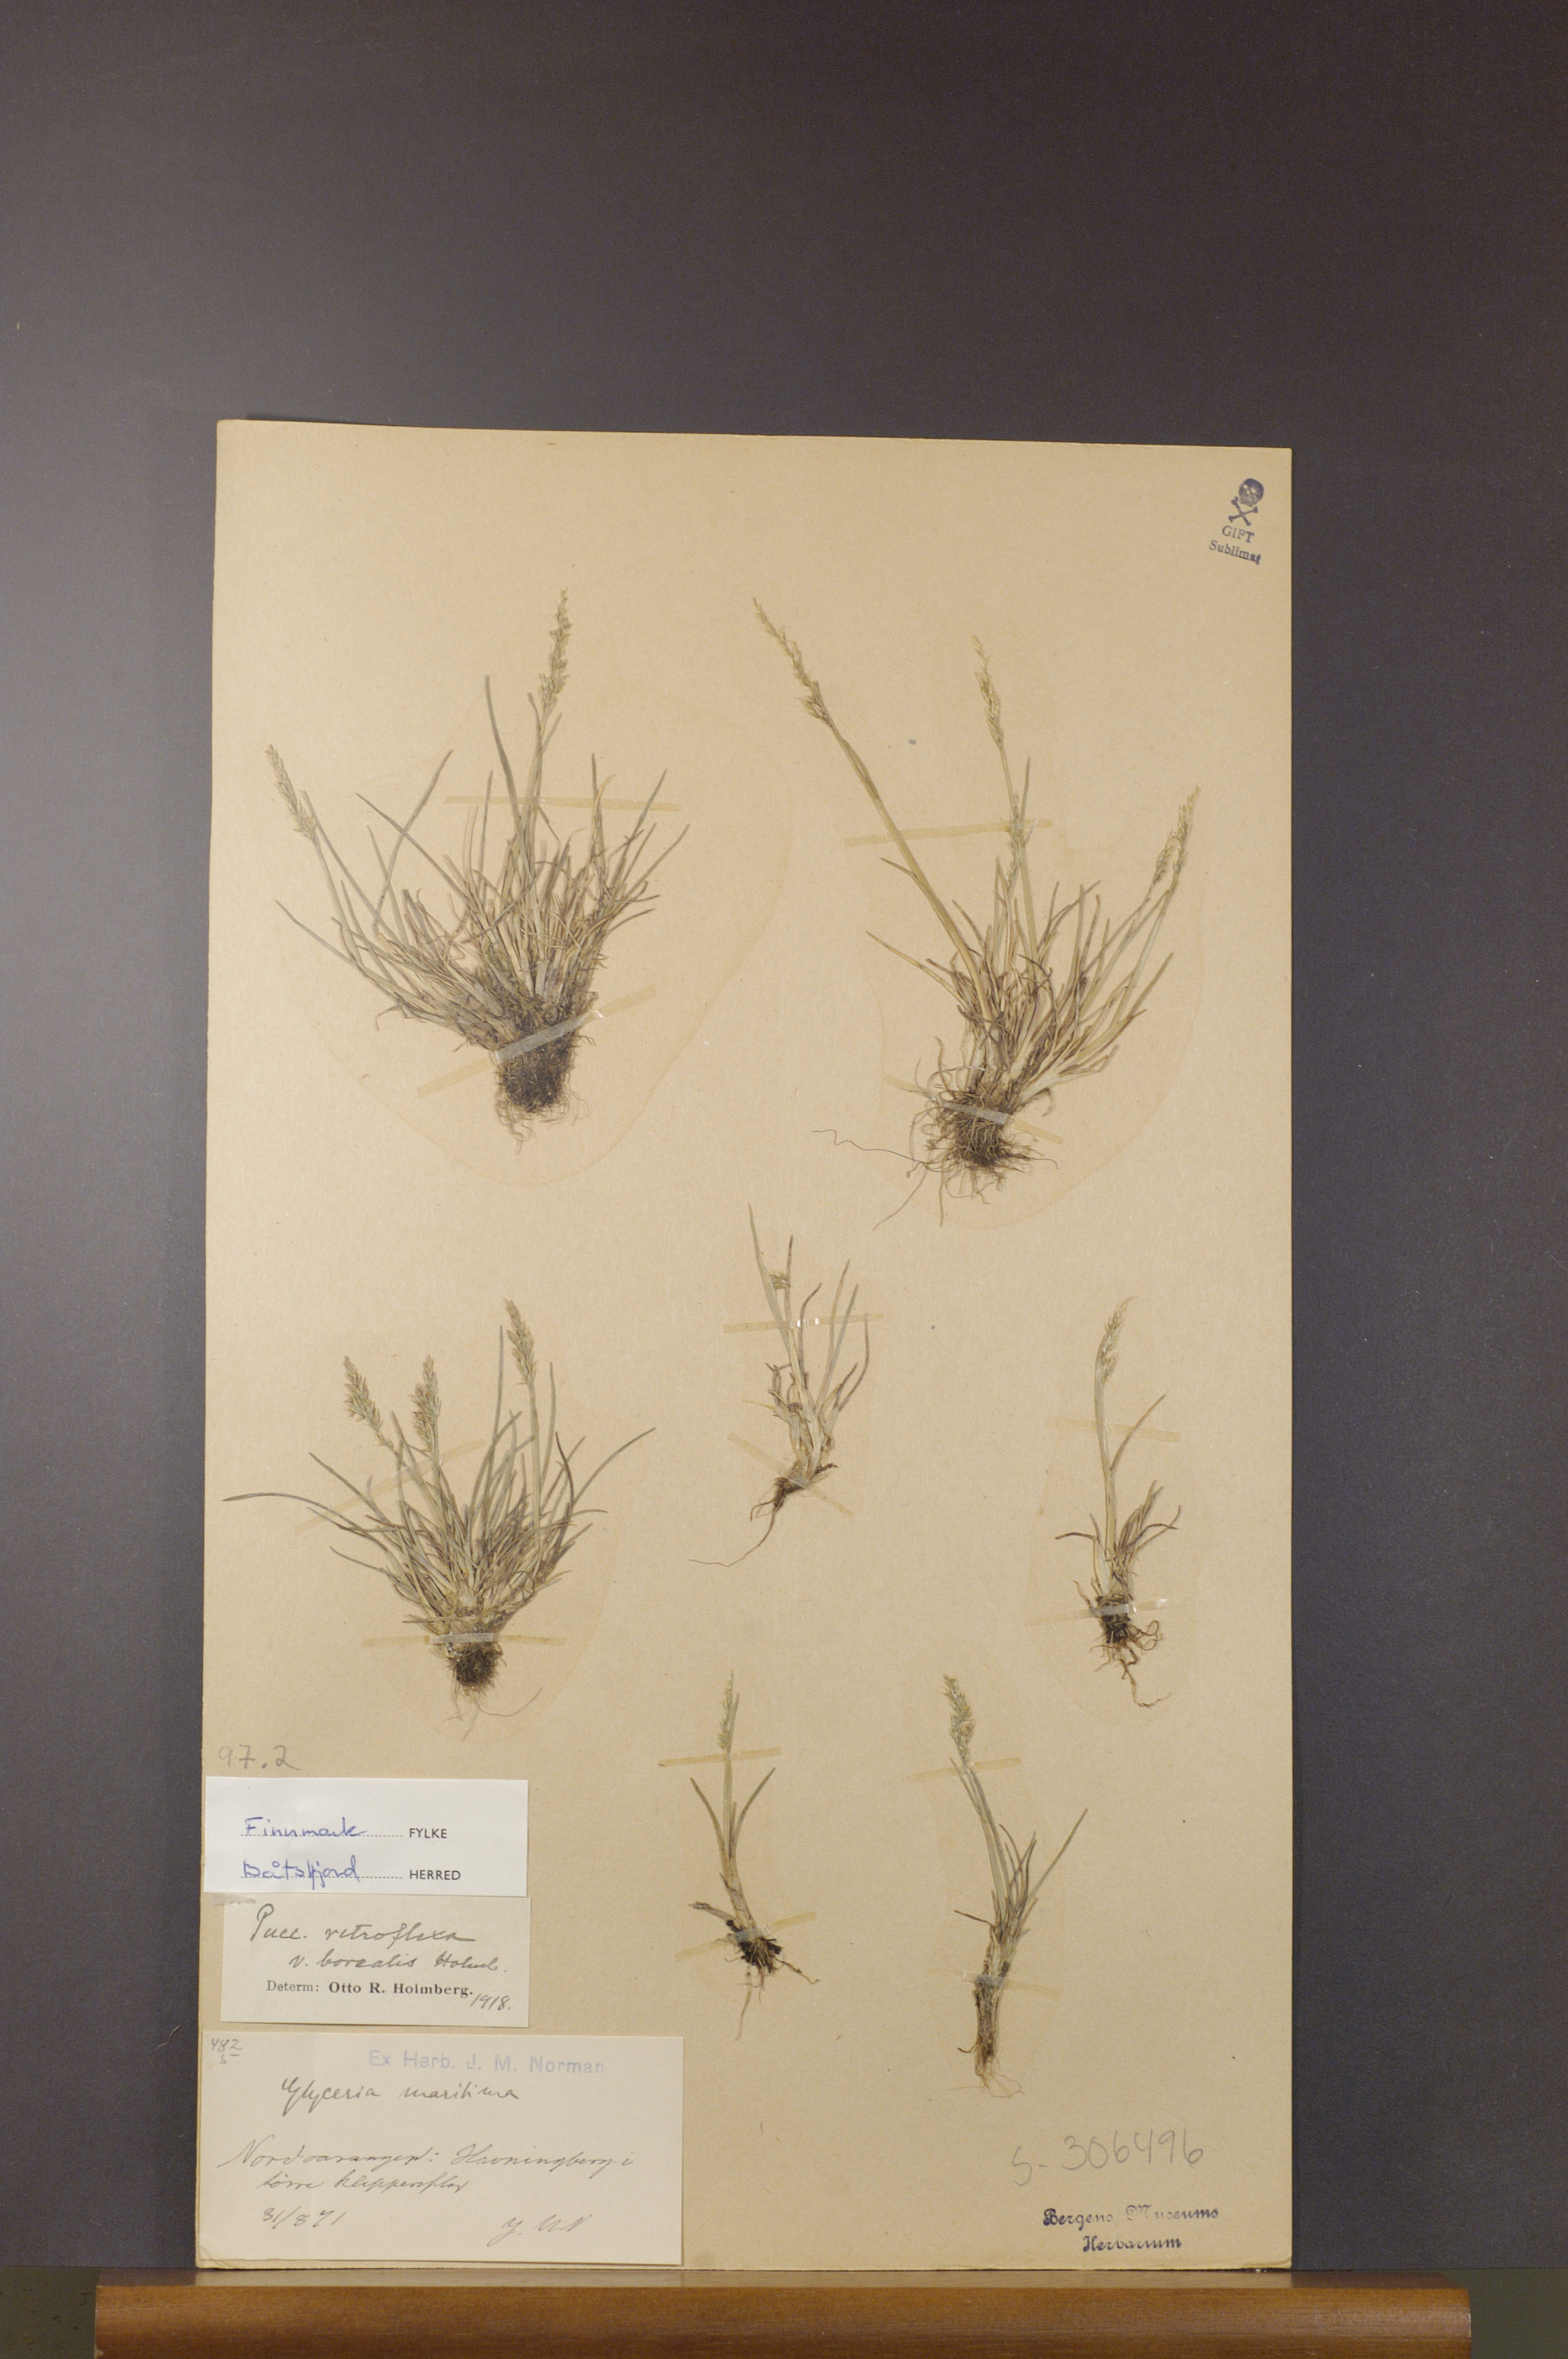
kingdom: Plantae
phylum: Tracheophyta
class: Liliopsida
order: Poales
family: Poaceae
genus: Puccinellia
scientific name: Puccinellia distans
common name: Weeping alkaligrass
